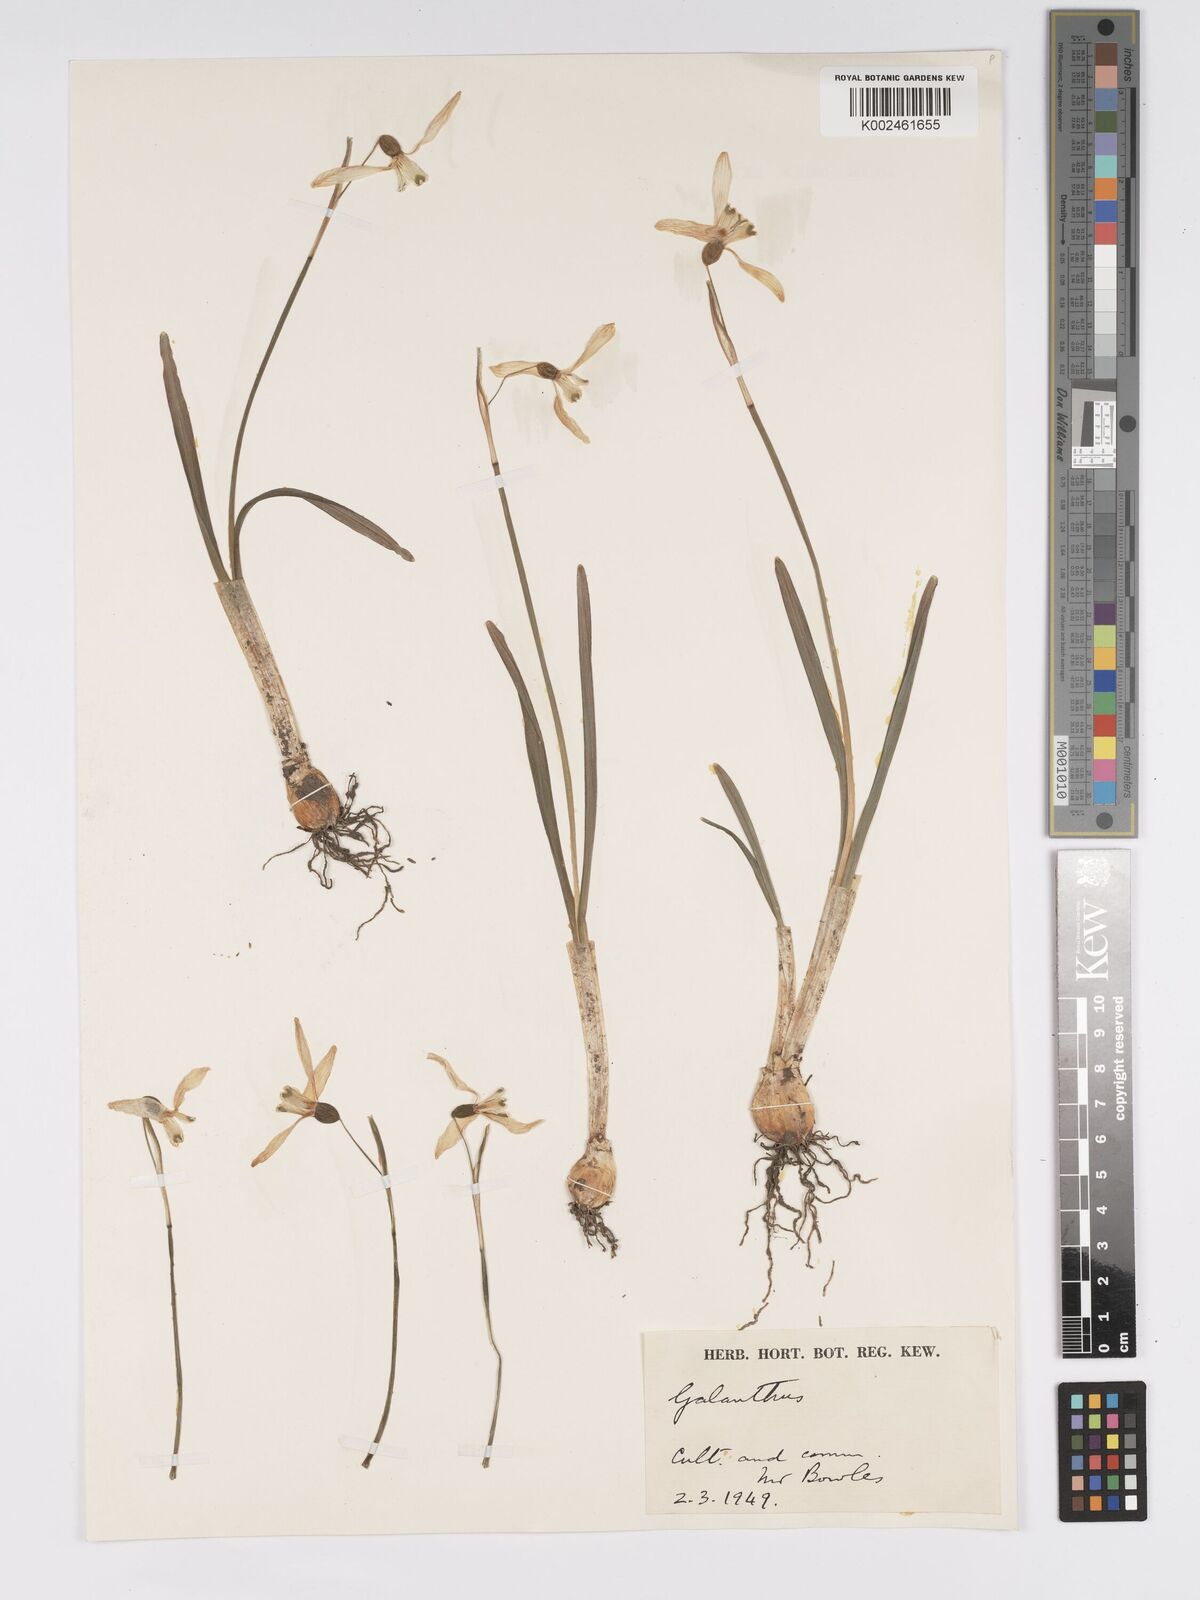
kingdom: Plantae
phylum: Tracheophyta
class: Liliopsida
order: Asparagales
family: Amaryllidaceae
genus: Galanthus
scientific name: Galanthus nivalis
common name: Snowdrop
